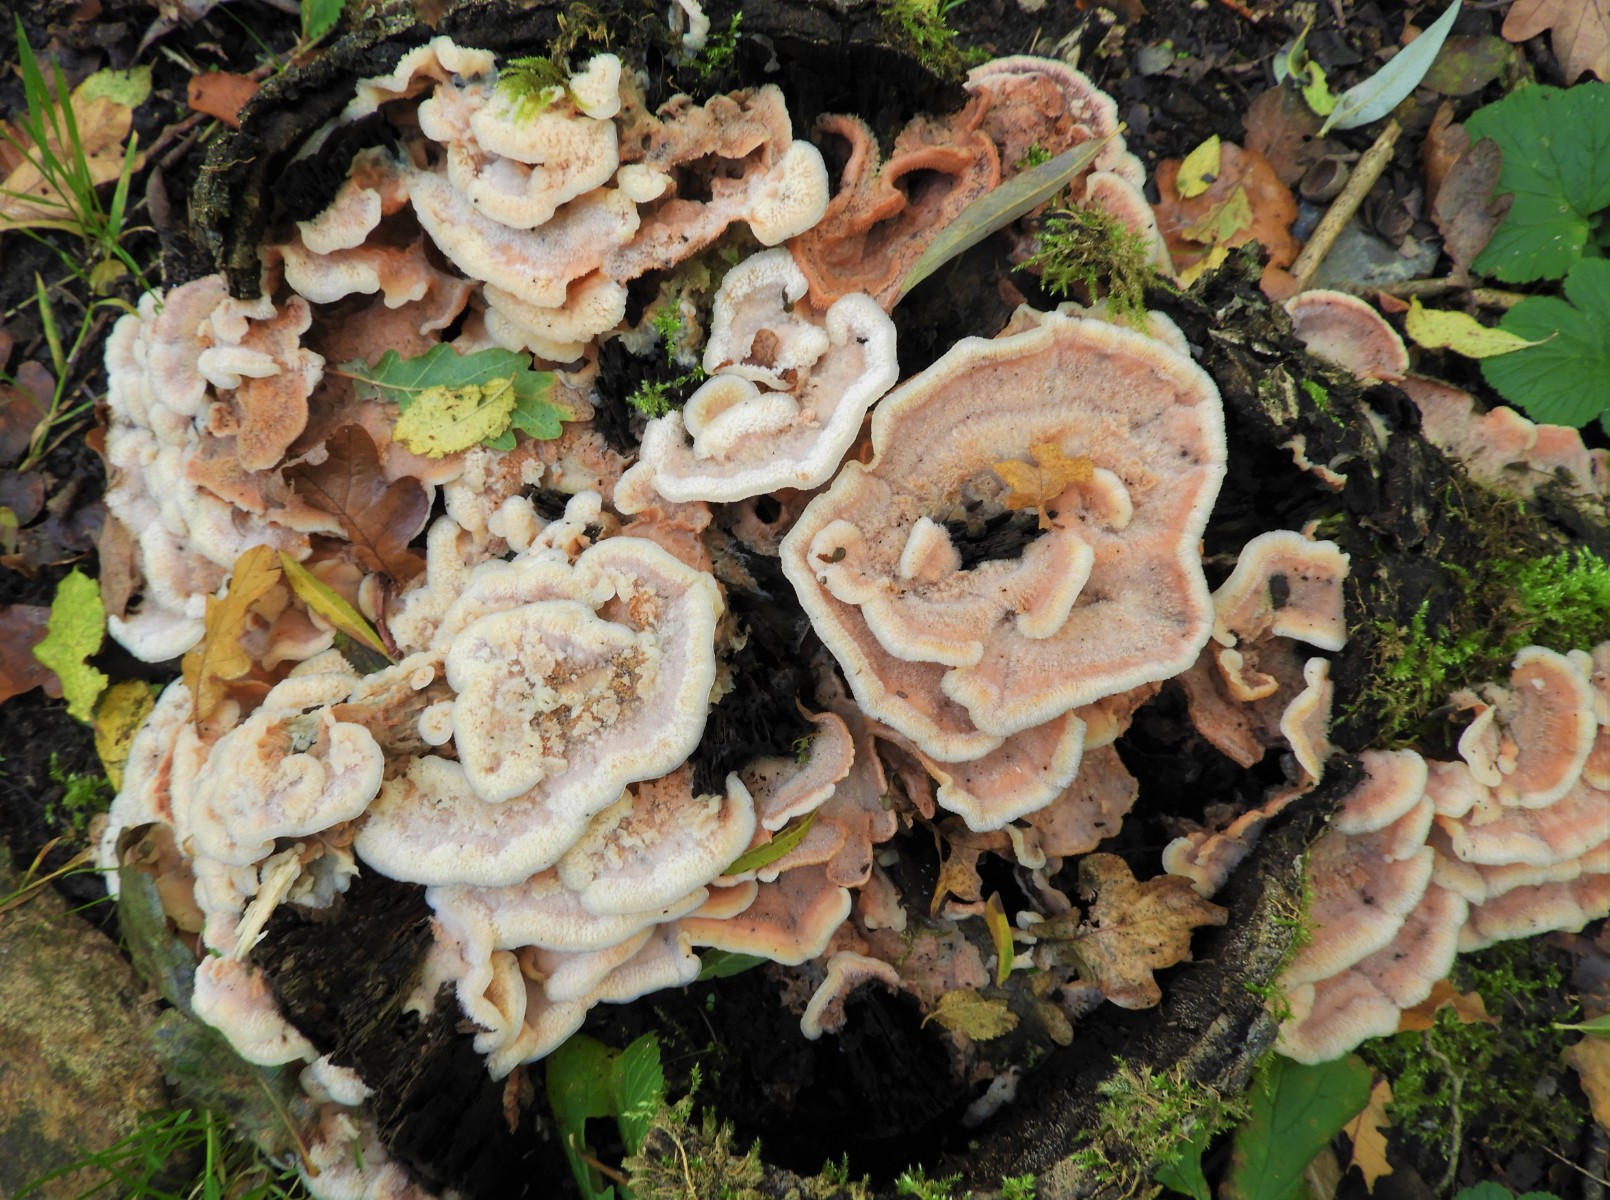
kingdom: Fungi
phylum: Basidiomycota
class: Agaricomycetes
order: Polyporales
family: Meruliaceae
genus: Phlebia
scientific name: Phlebia tremellosa
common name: bævrende åresvamp
